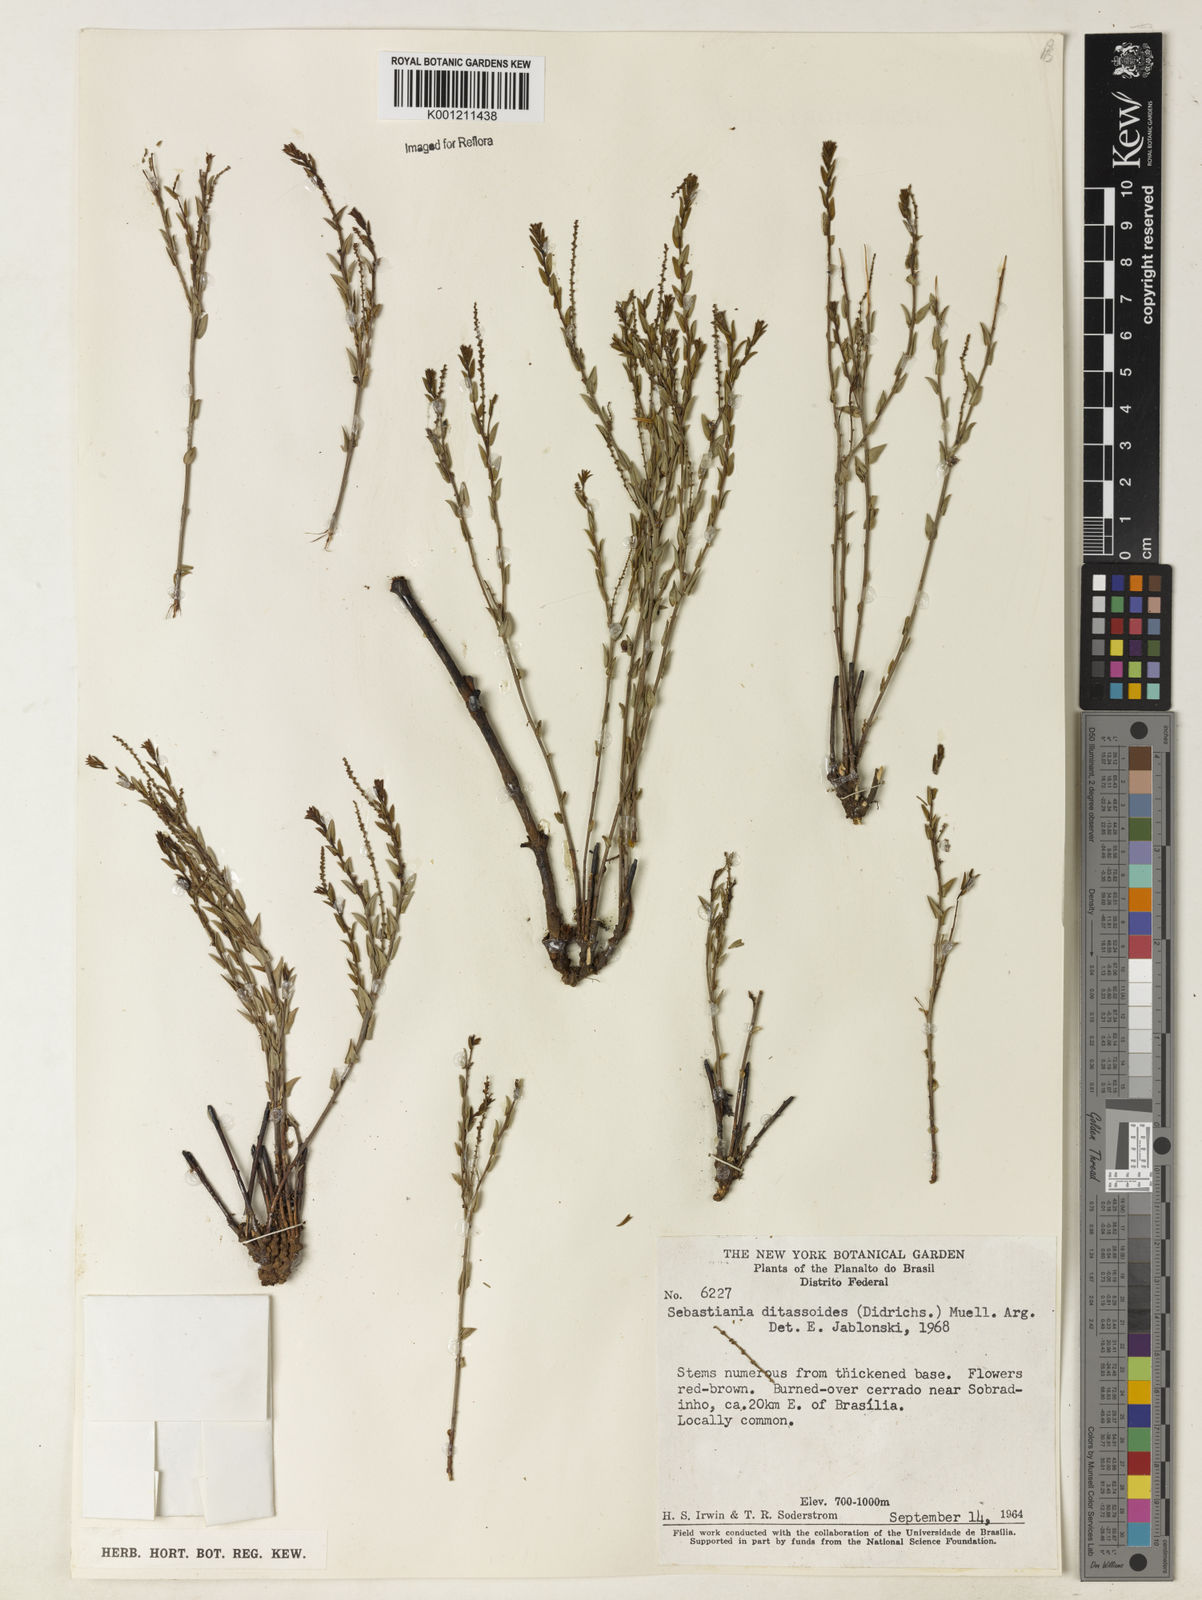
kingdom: Plantae
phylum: Tracheophyta
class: Magnoliopsida
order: Malpighiales
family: Euphorbiaceae
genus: Microstachys
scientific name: Microstachys ditassoides
